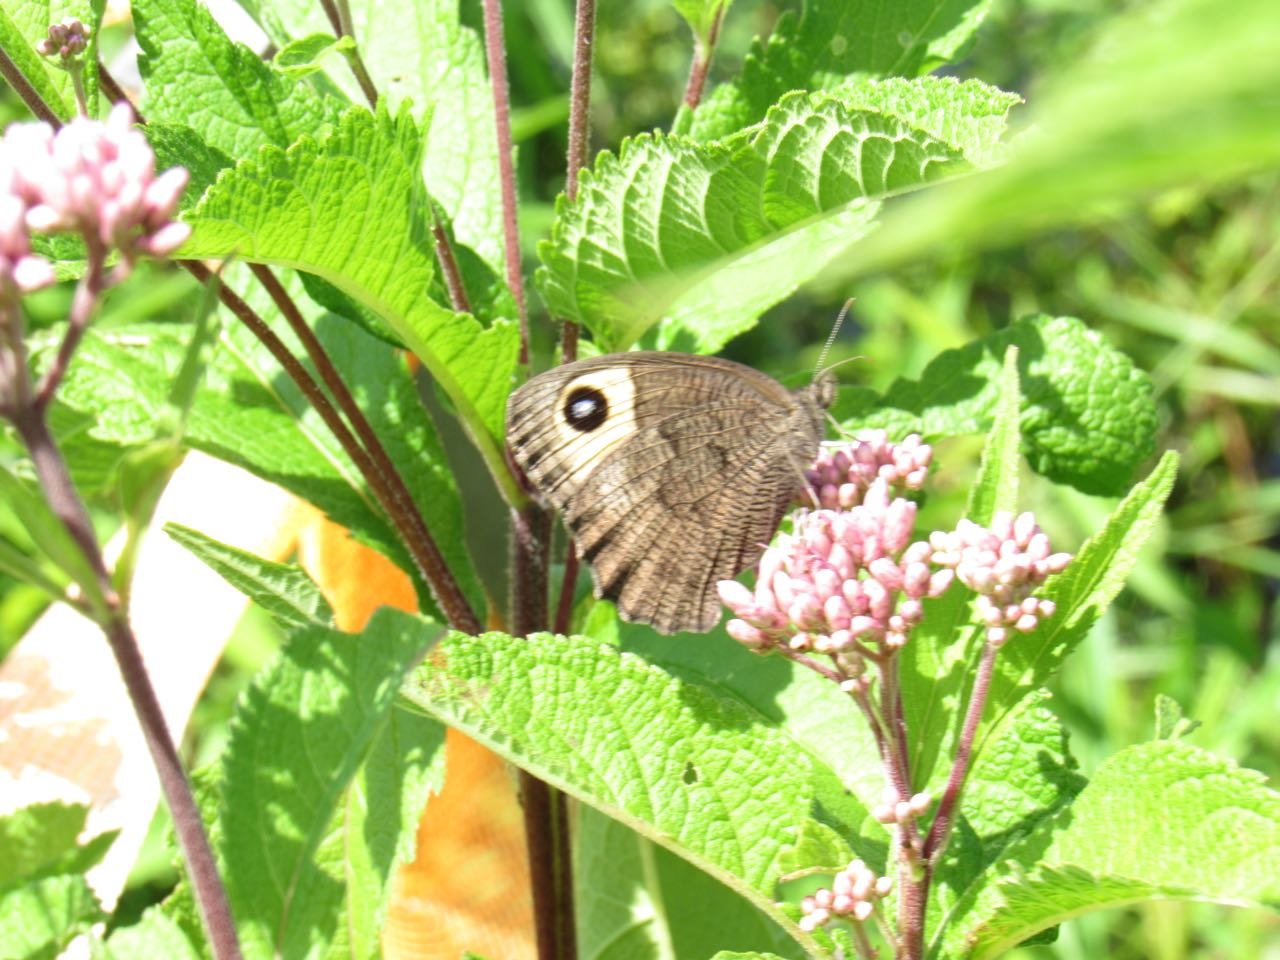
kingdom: Animalia
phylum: Arthropoda
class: Insecta
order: Lepidoptera
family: Nymphalidae
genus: Cercyonis
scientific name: Cercyonis pegala
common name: Common Wood-Nymph
